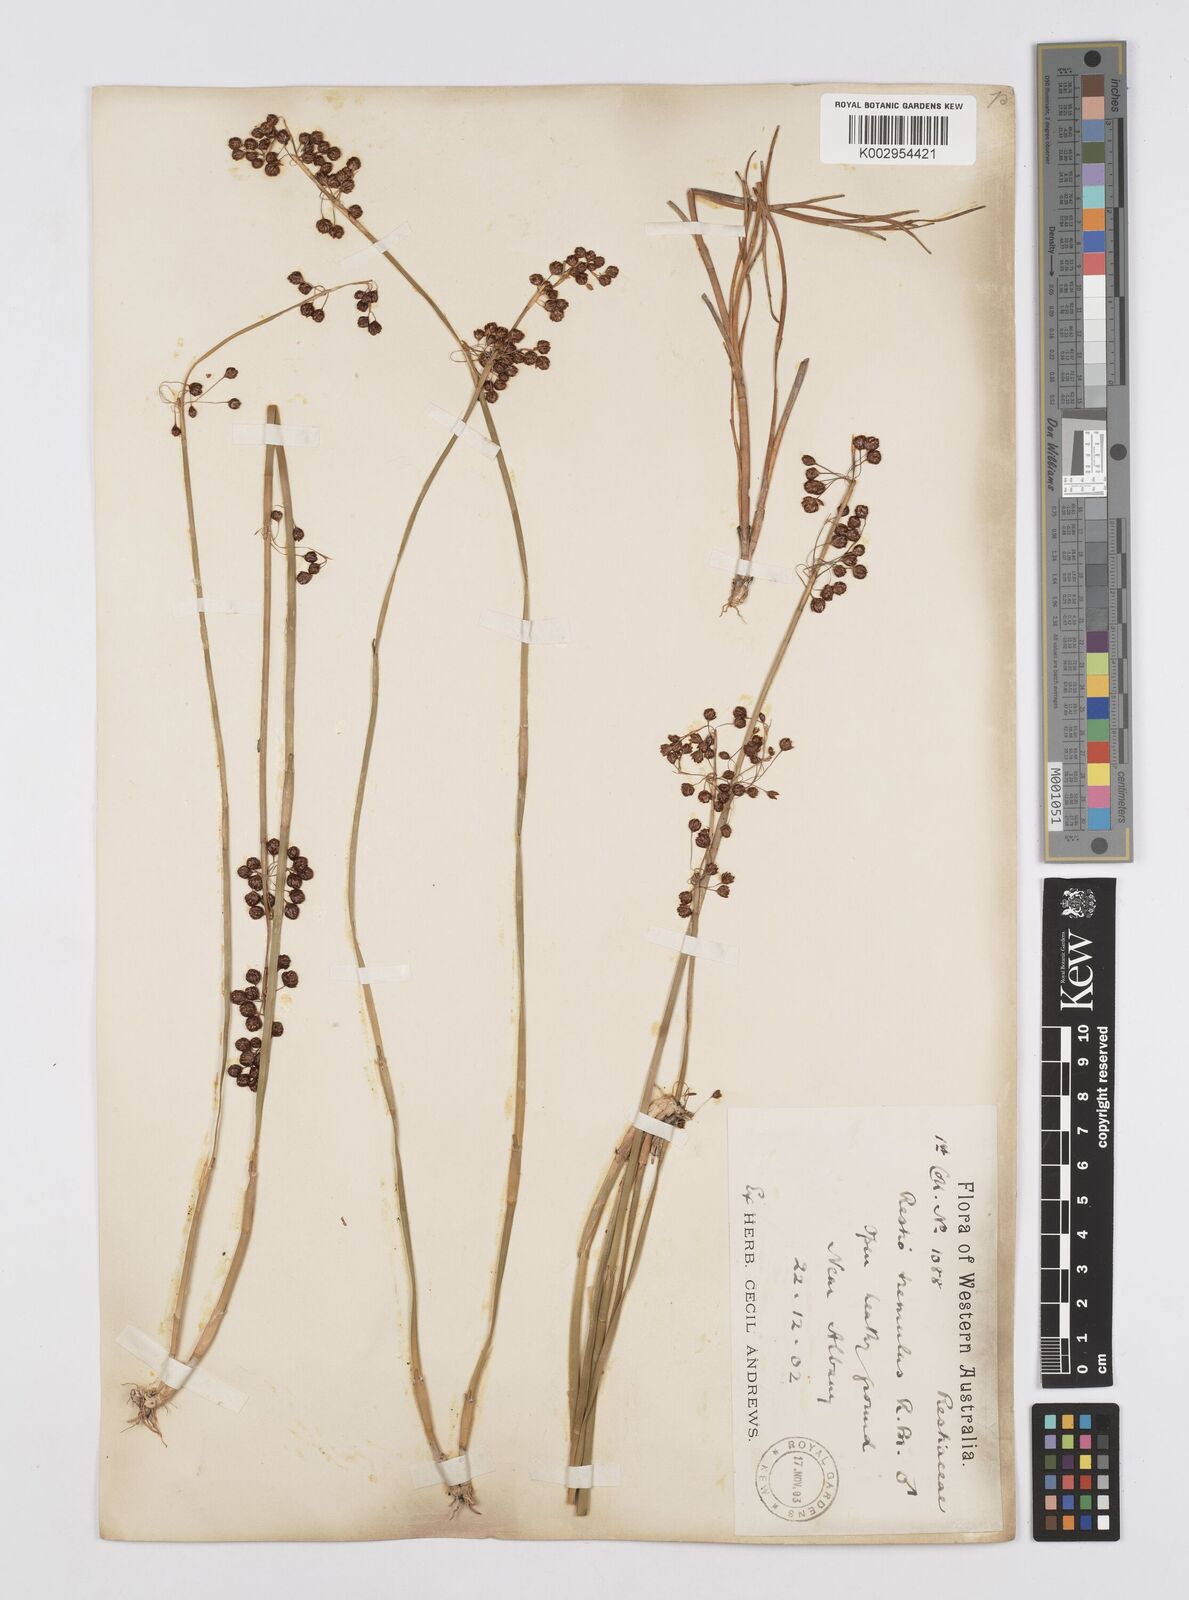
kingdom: Plantae
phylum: Tracheophyta
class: Liliopsida
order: Poales
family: Restionaceae
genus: Tremulina
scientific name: Tremulina tremula
